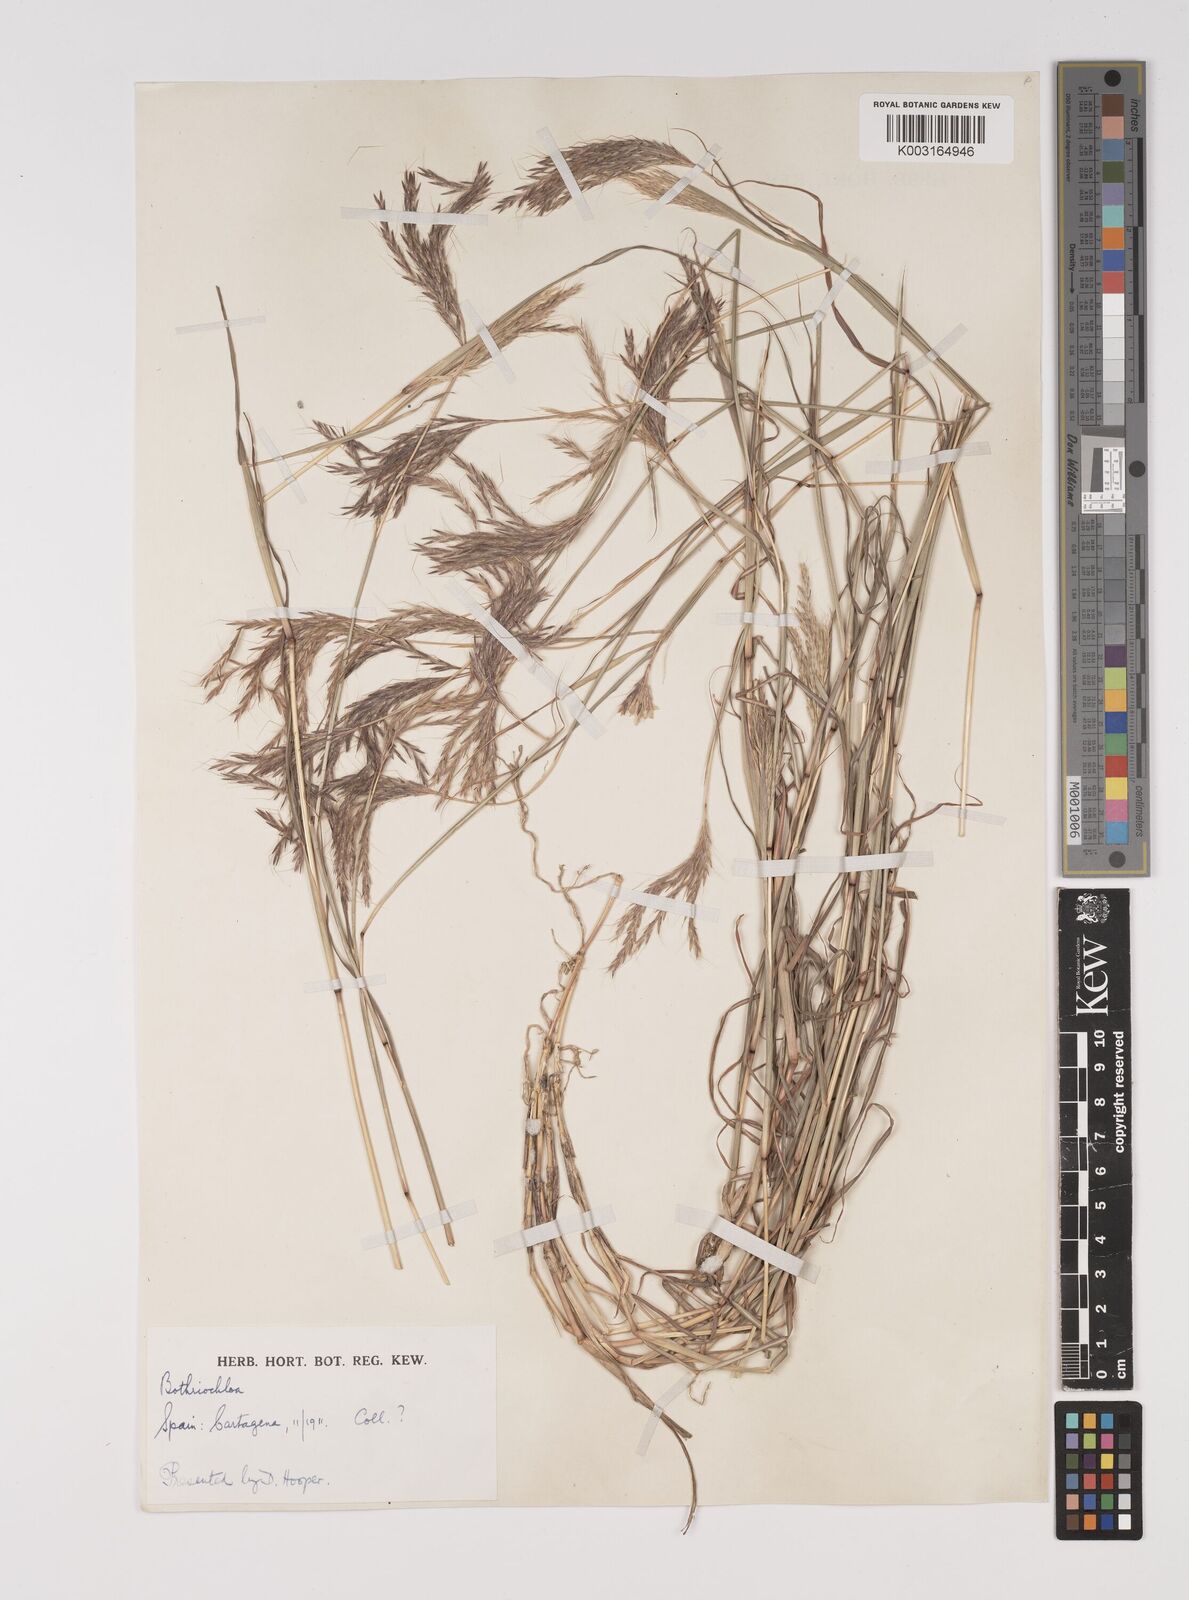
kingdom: Plantae
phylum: Tracheophyta
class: Liliopsida
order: Poales
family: Poaceae
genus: Bothriochloa
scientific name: Bothriochloa ischaemum
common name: Yellow bluestem
